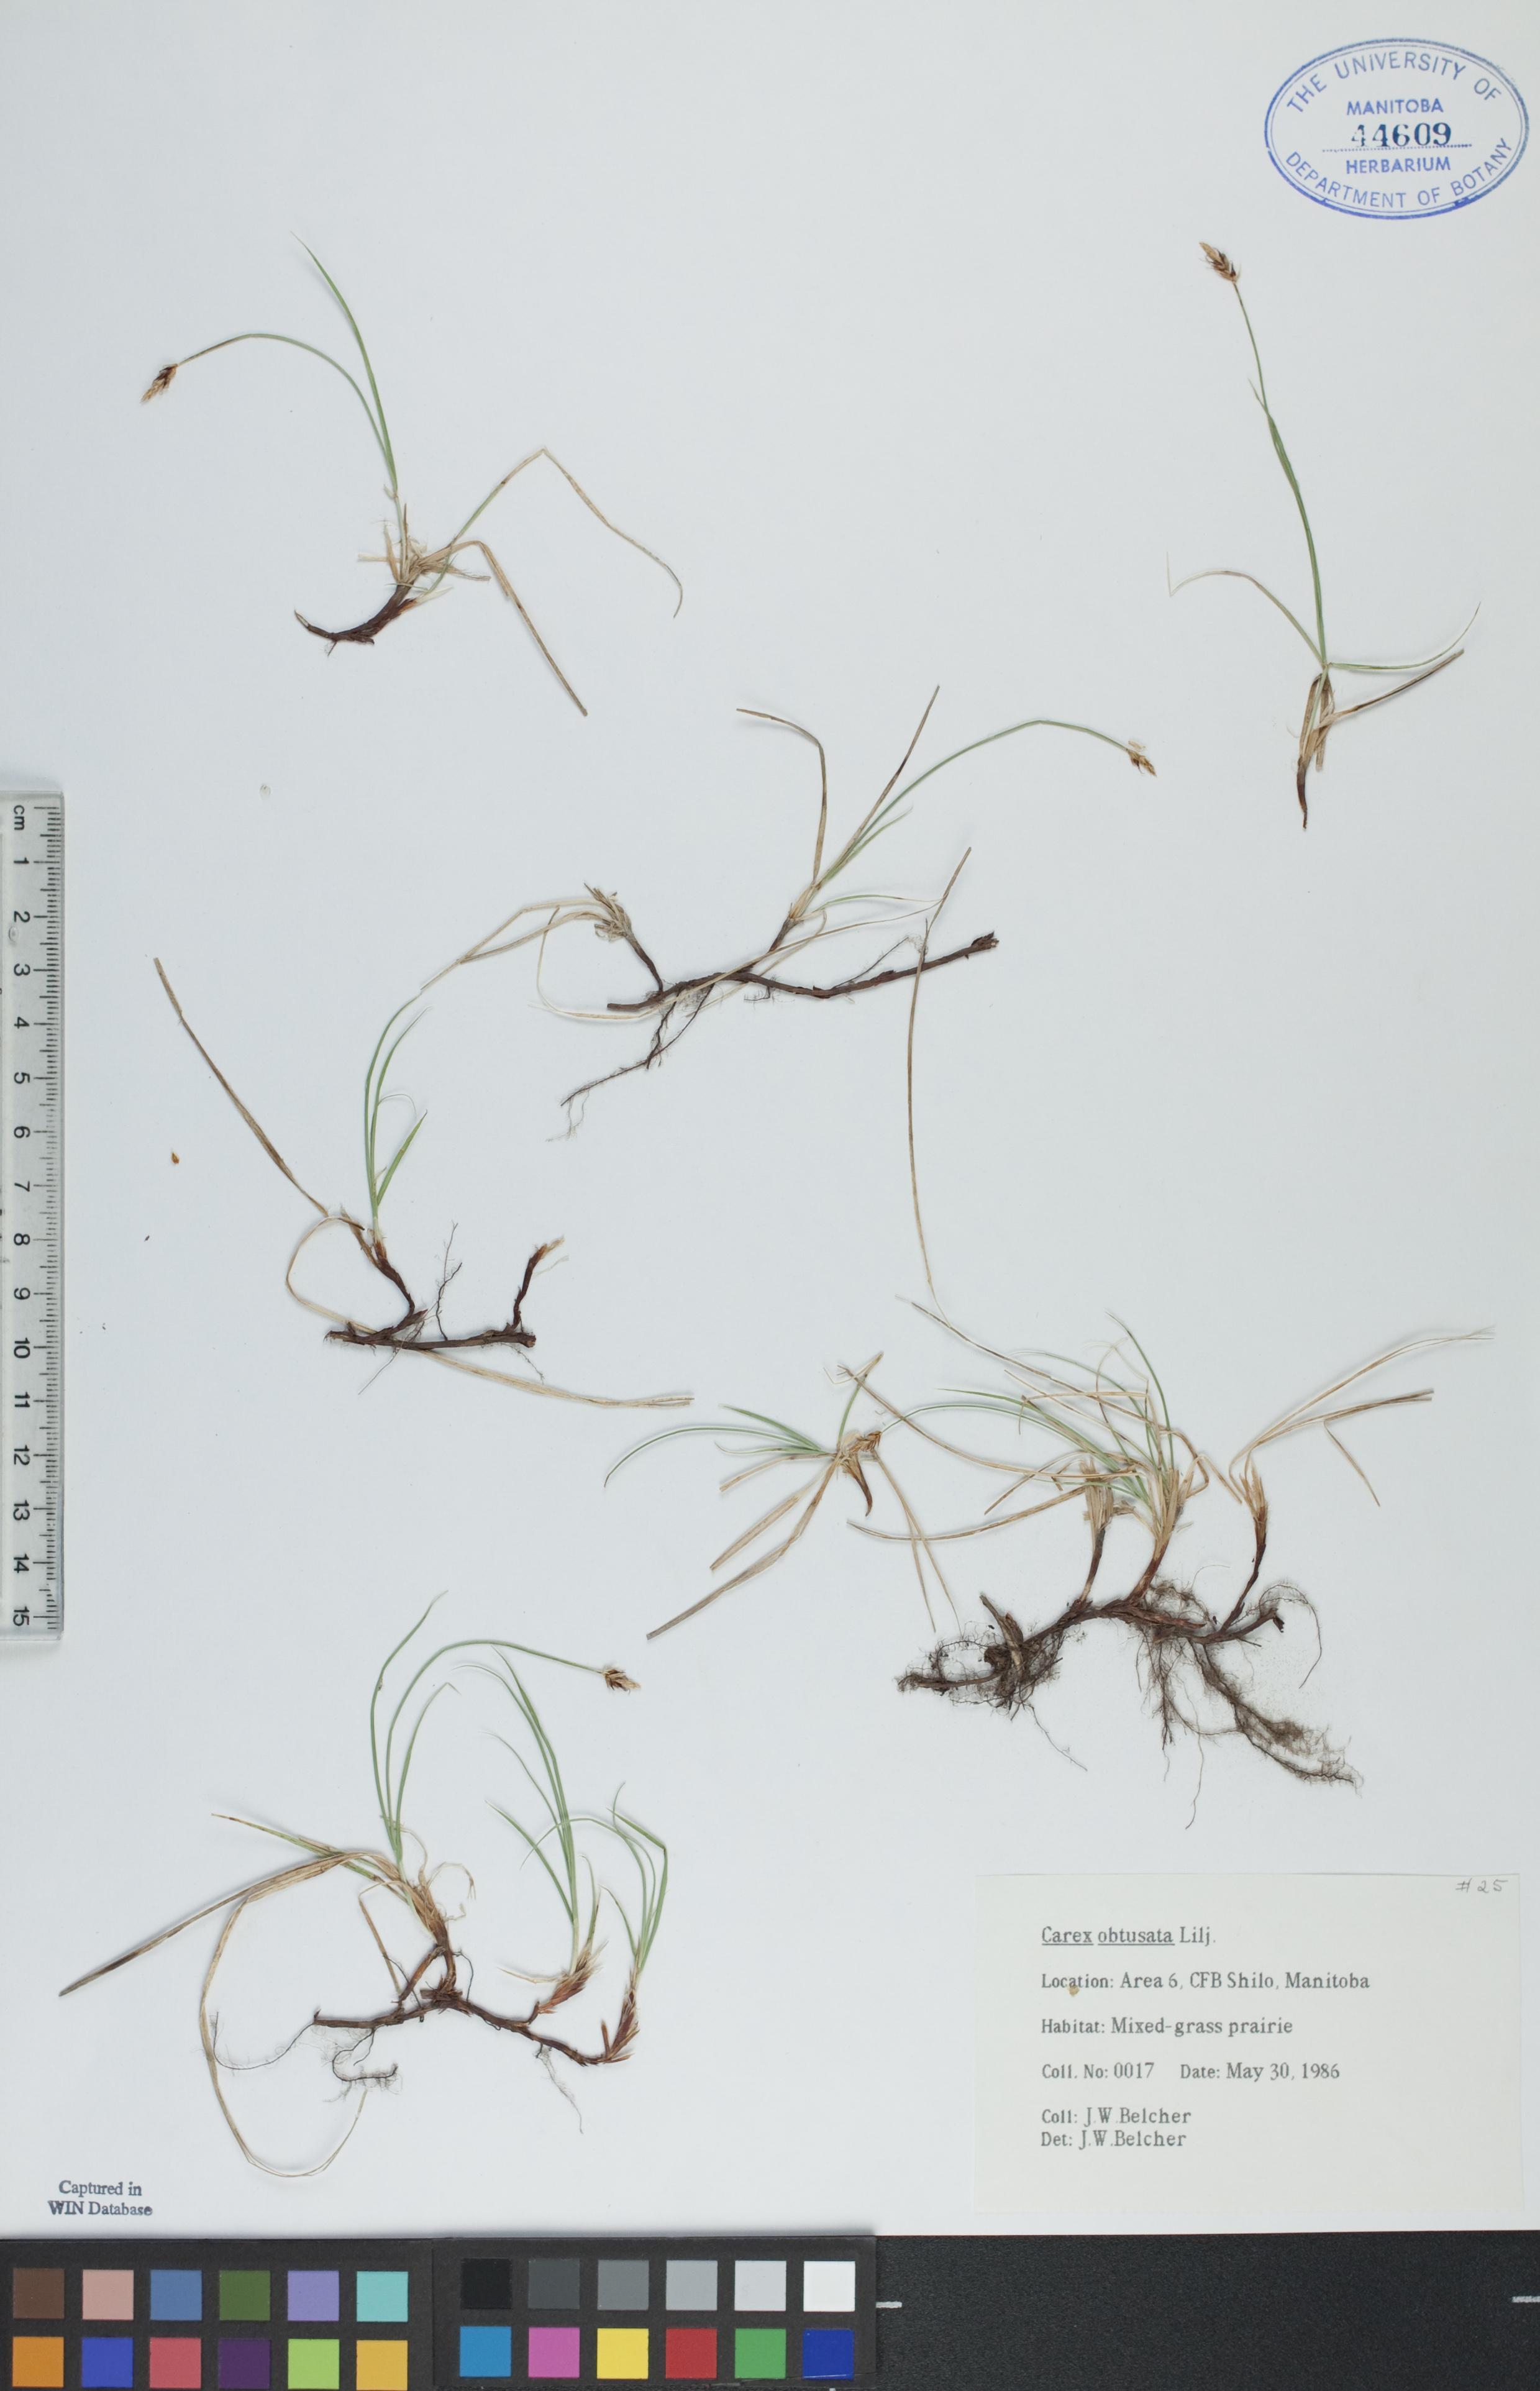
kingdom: Plantae
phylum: Tracheophyta
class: Liliopsida
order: Poales
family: Cyperaceae
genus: Carex
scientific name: Carex obtusata
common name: Blunt sedge
